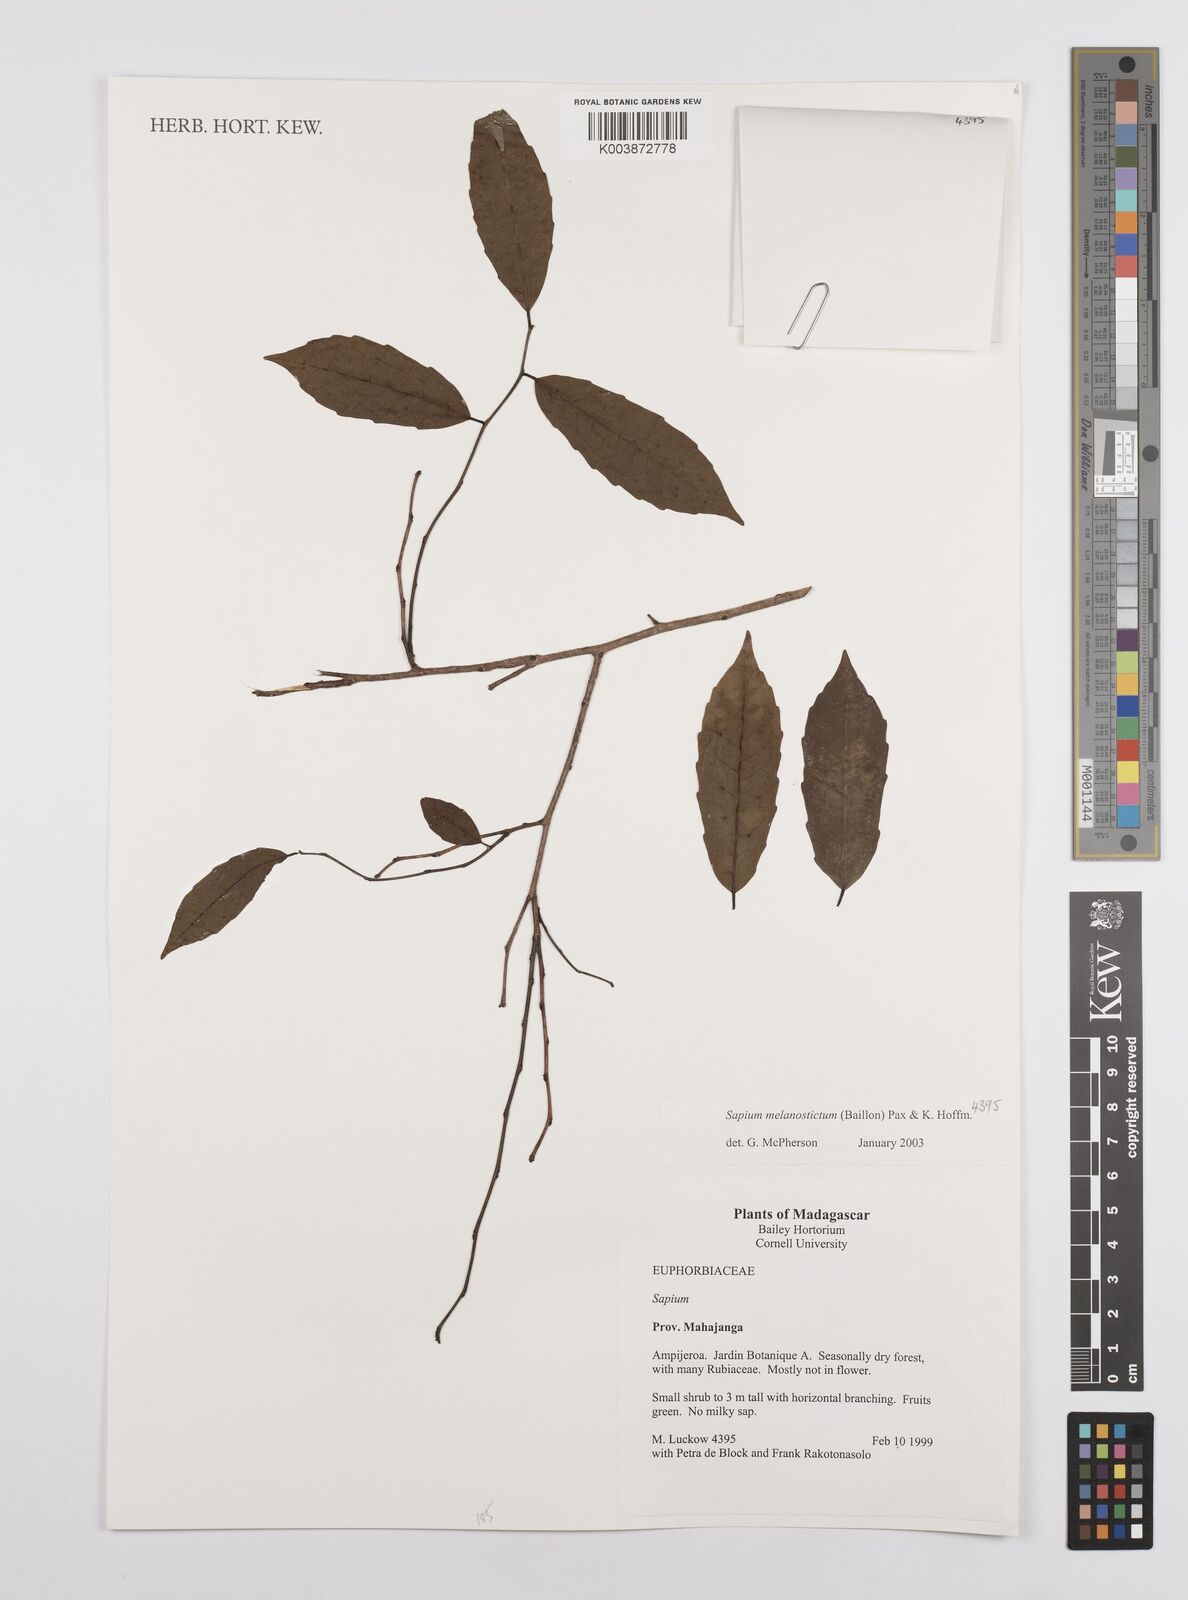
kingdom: Plantae
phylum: Tracheophyta
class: Magnoliopsida
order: Malpighiales
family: Euphorbiaceae
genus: Sclerocroton
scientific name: Sclerocroton melanostictus
